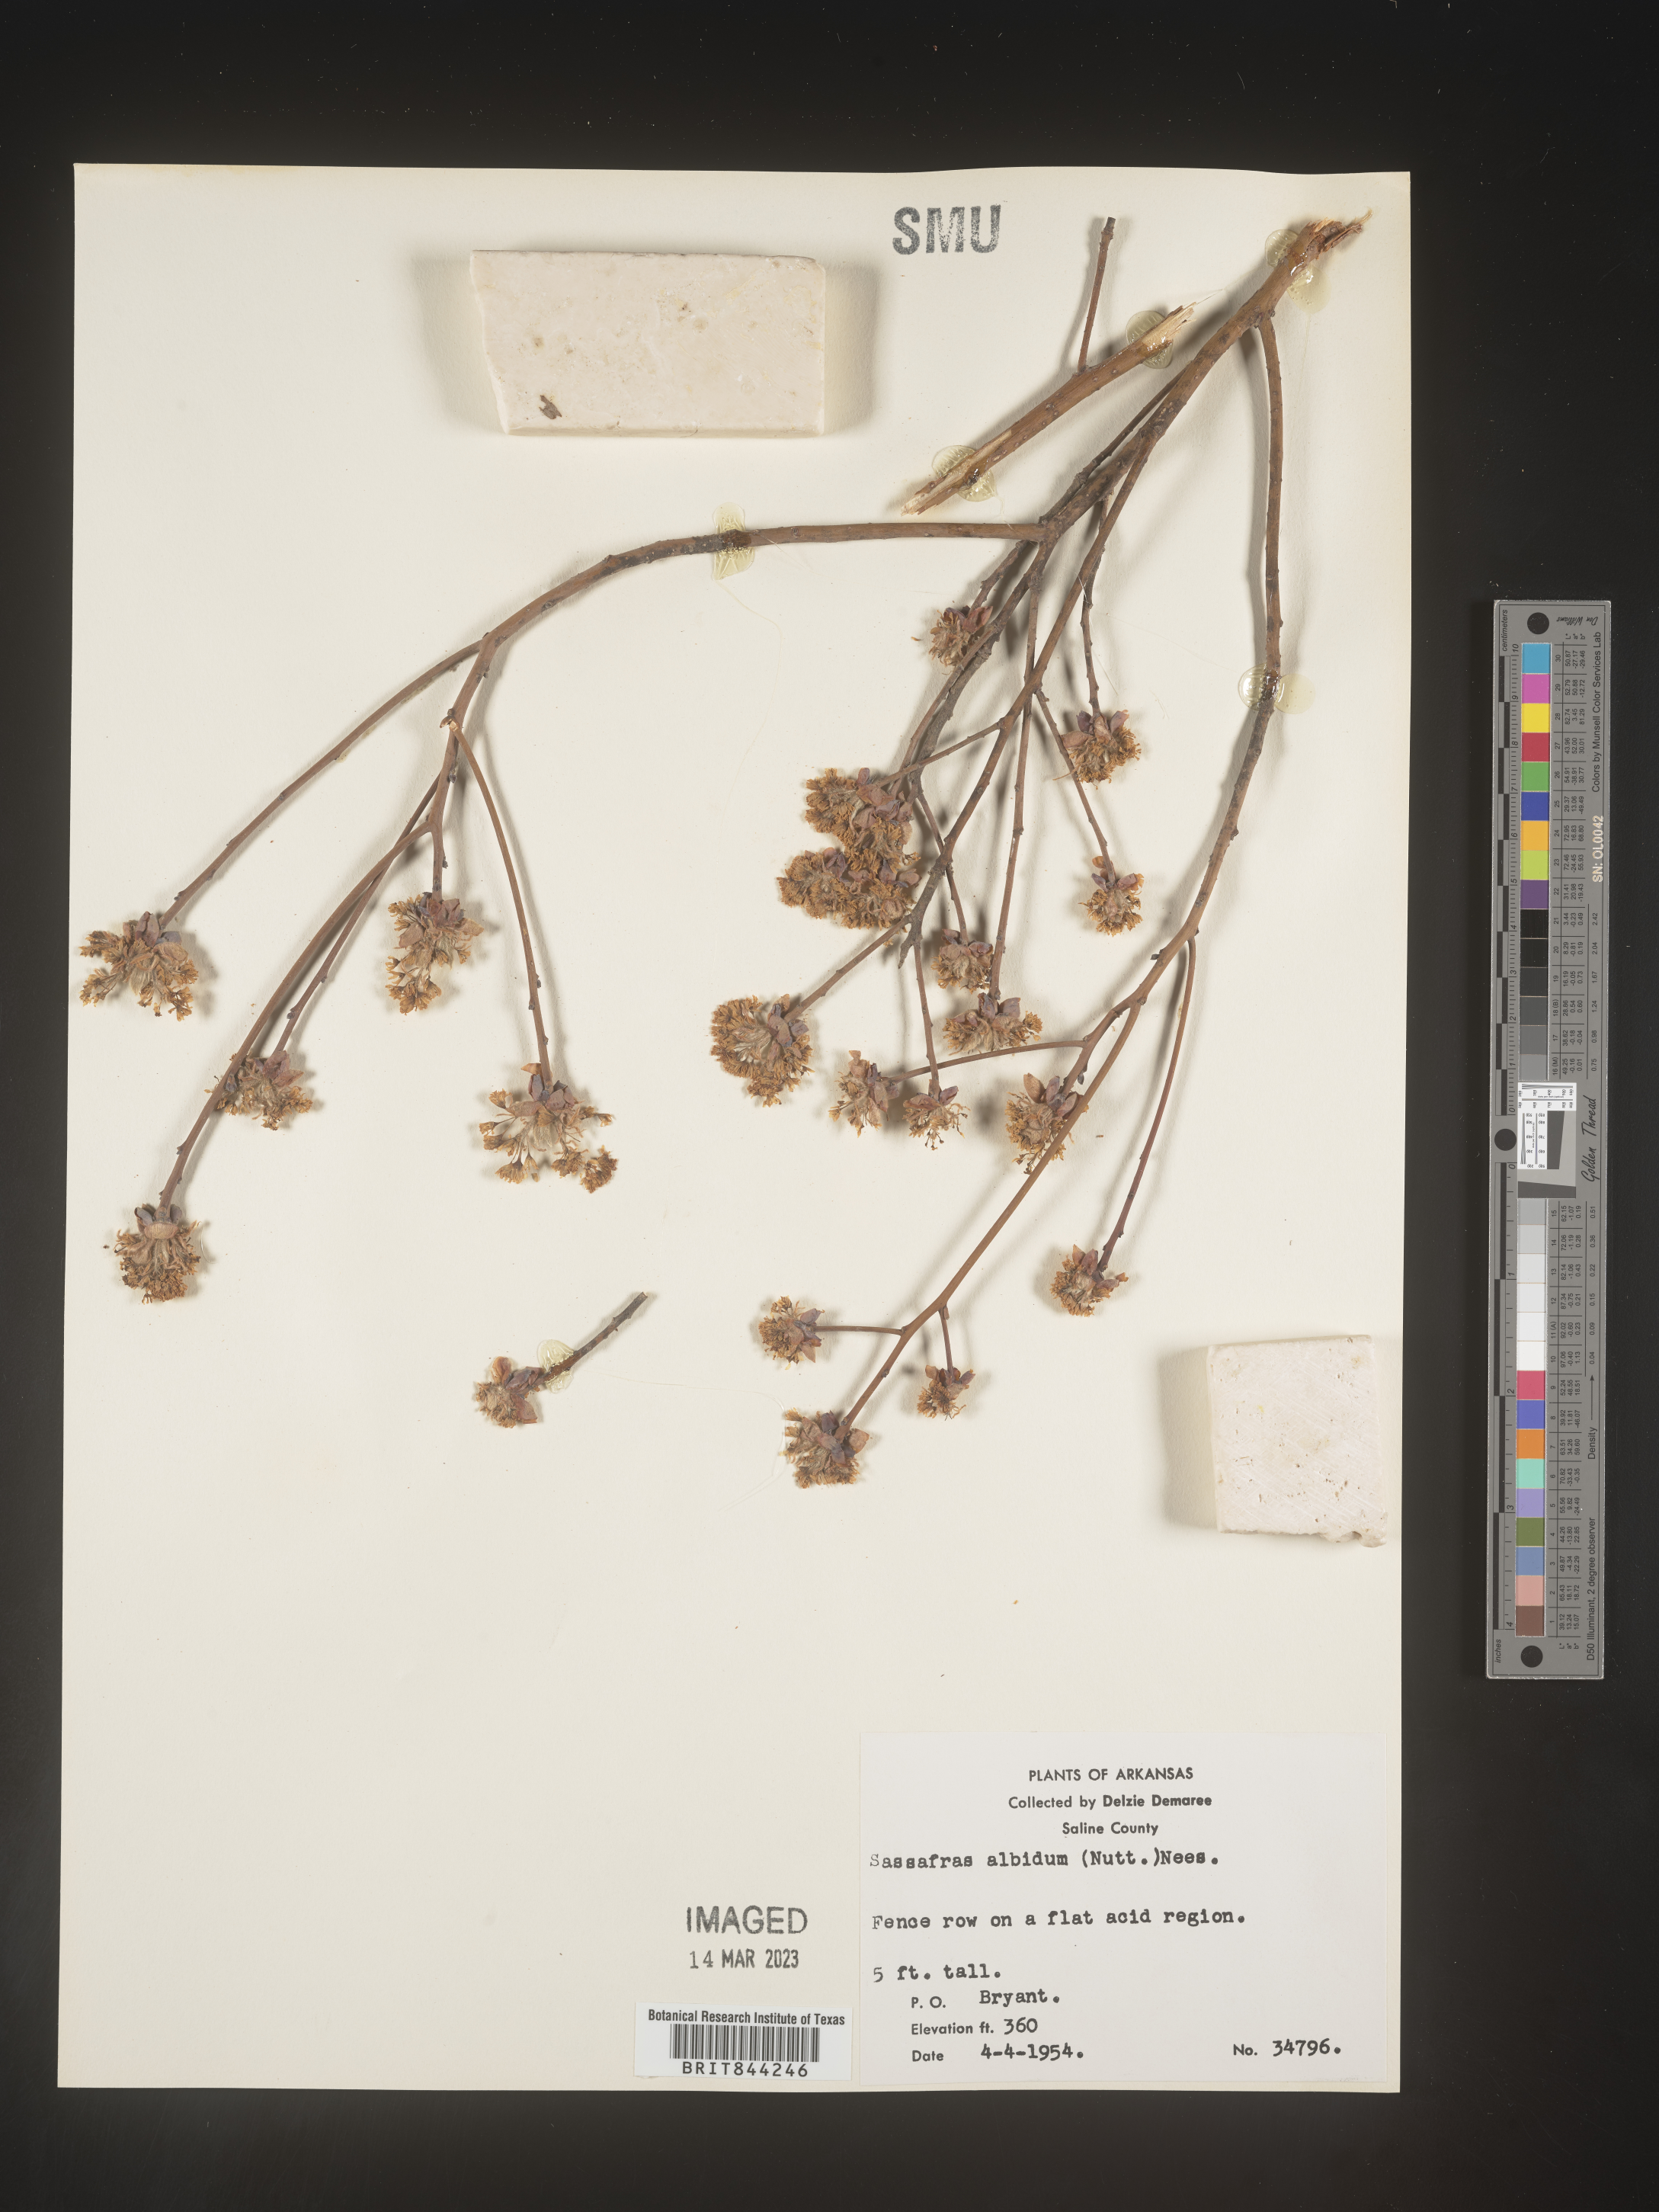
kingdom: Plantae
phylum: Tracheophyta
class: Magnoliopsida
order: Laurales
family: Lauraceae
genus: Sassafras
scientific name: Sassafras albidum
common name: Sassafras
